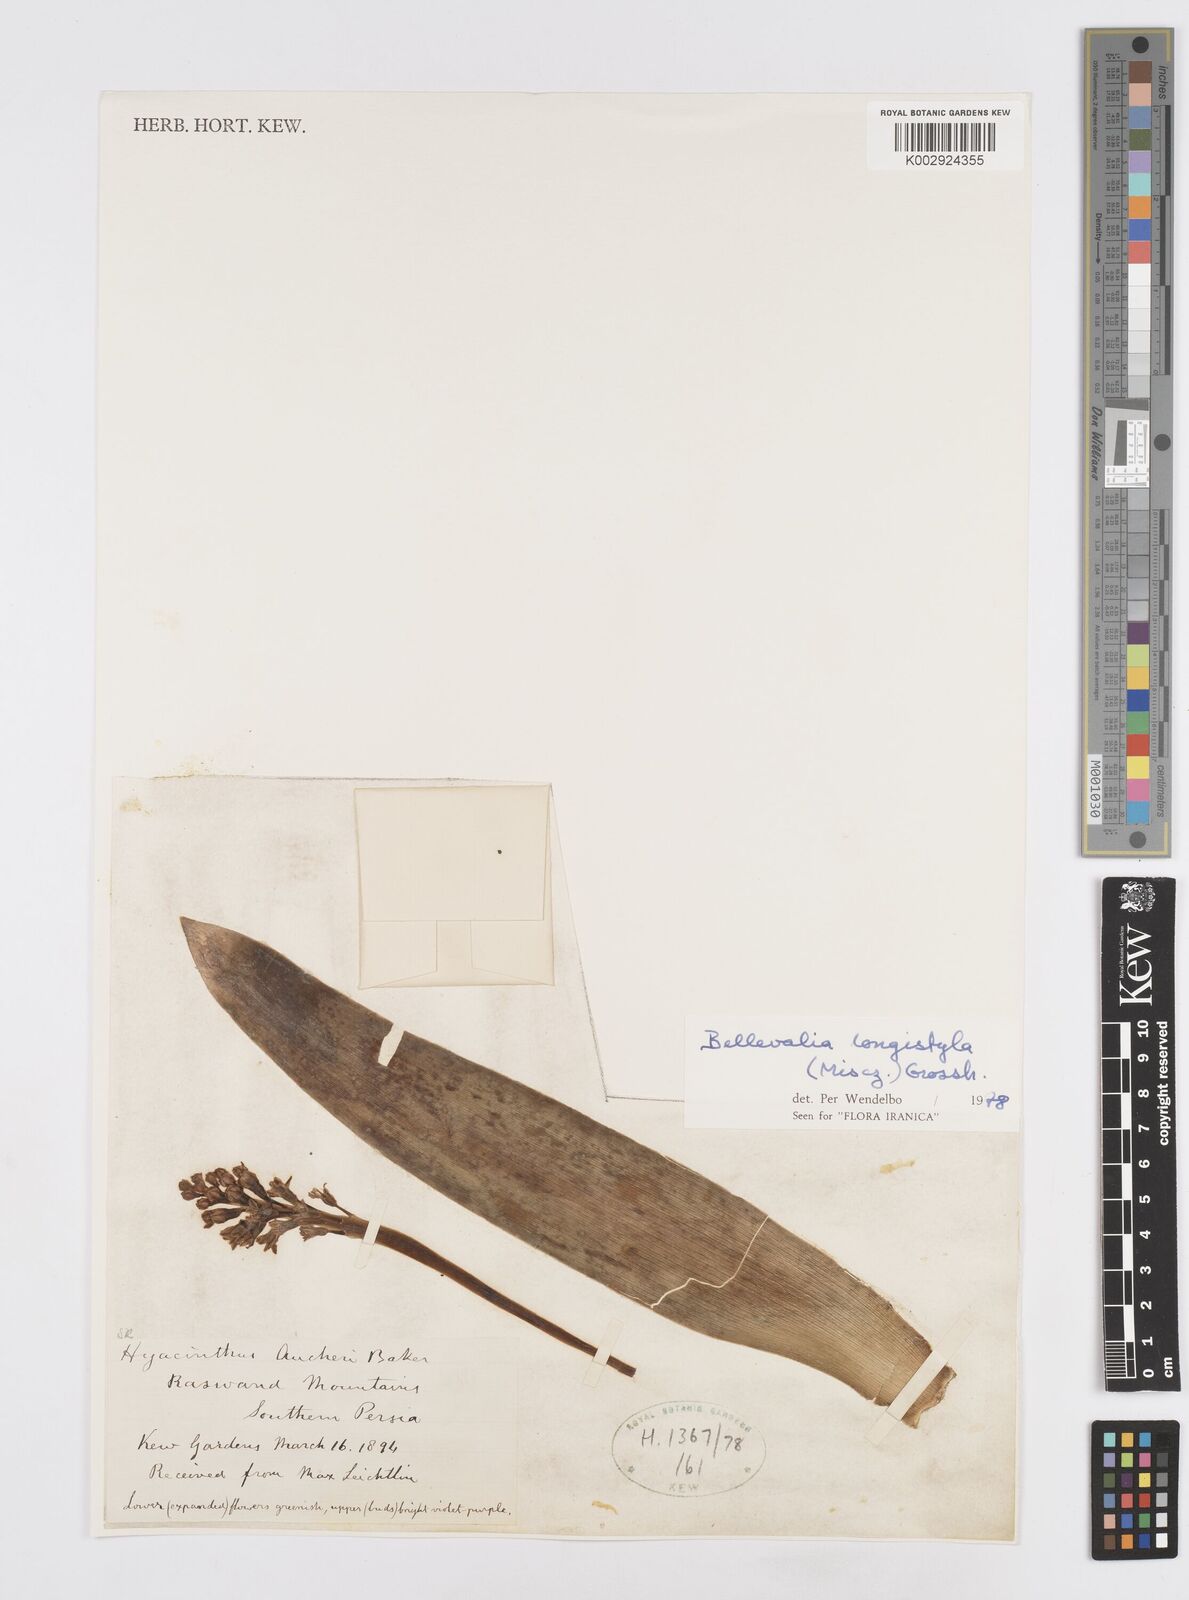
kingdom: Plantae
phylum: Tracheophyta
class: Liliopsida
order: Asparagales
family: Asparagaceae
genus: Bellevalia
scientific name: Bellevalia longistyla
